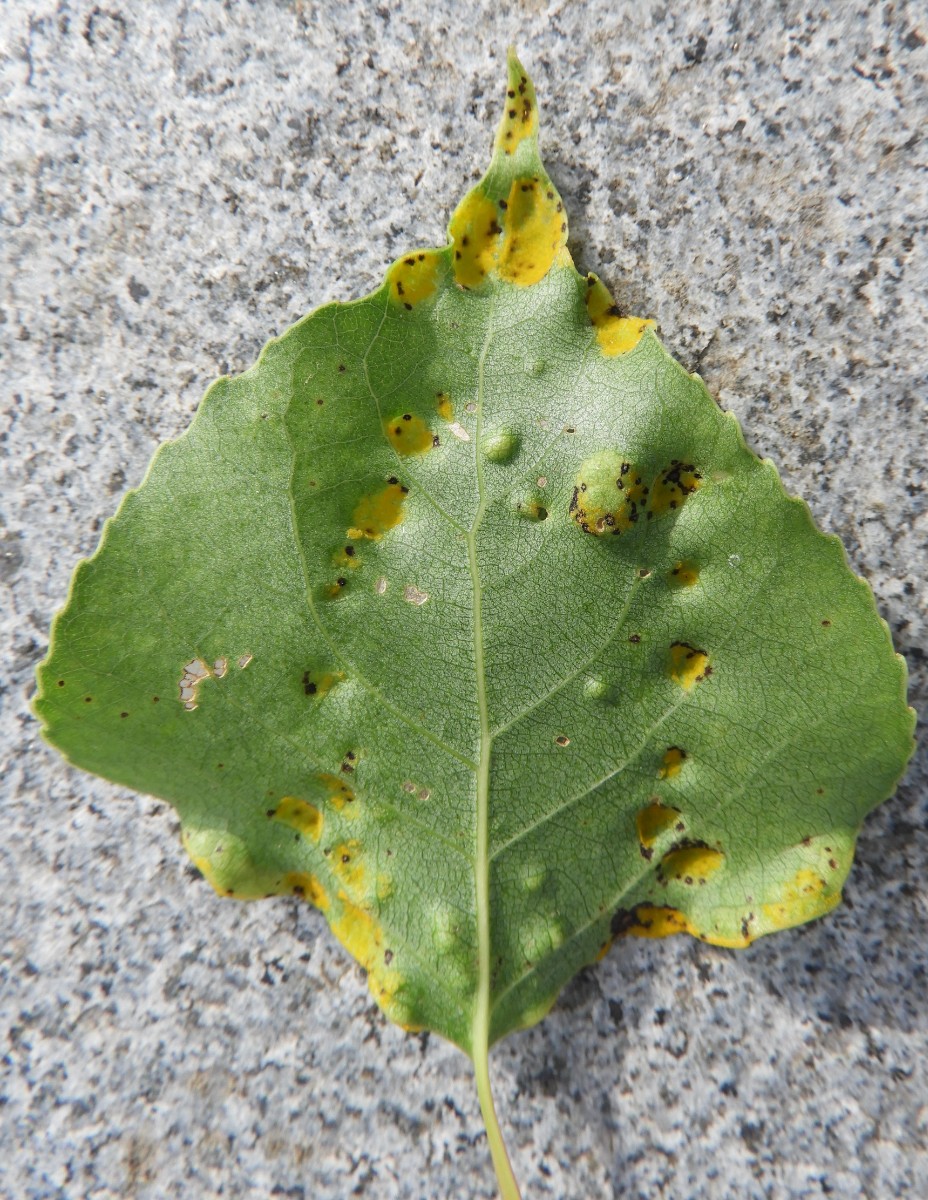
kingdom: Fungi
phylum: Ascomycota
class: Taphrinomycetes
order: Taphrinales
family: Taphrinaceae
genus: Taphrina
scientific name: Taphrina populina
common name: Poplar leaf curl
